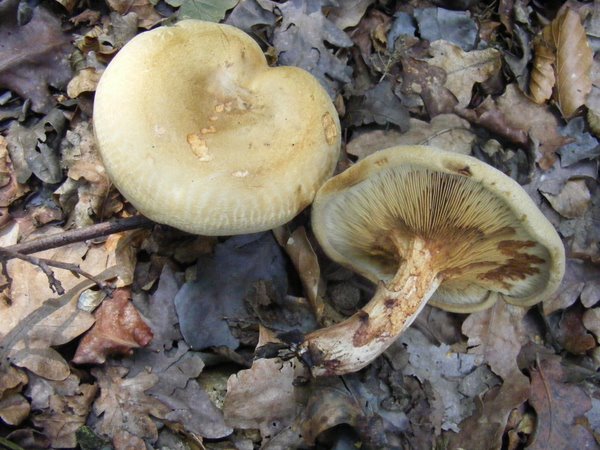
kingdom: Fungi
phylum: Basidiomycota
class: Agaricomycetes
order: Boletales
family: Paxillaceae
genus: Paxillus
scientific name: Paxillus involutus
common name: almindelig netbladhat
